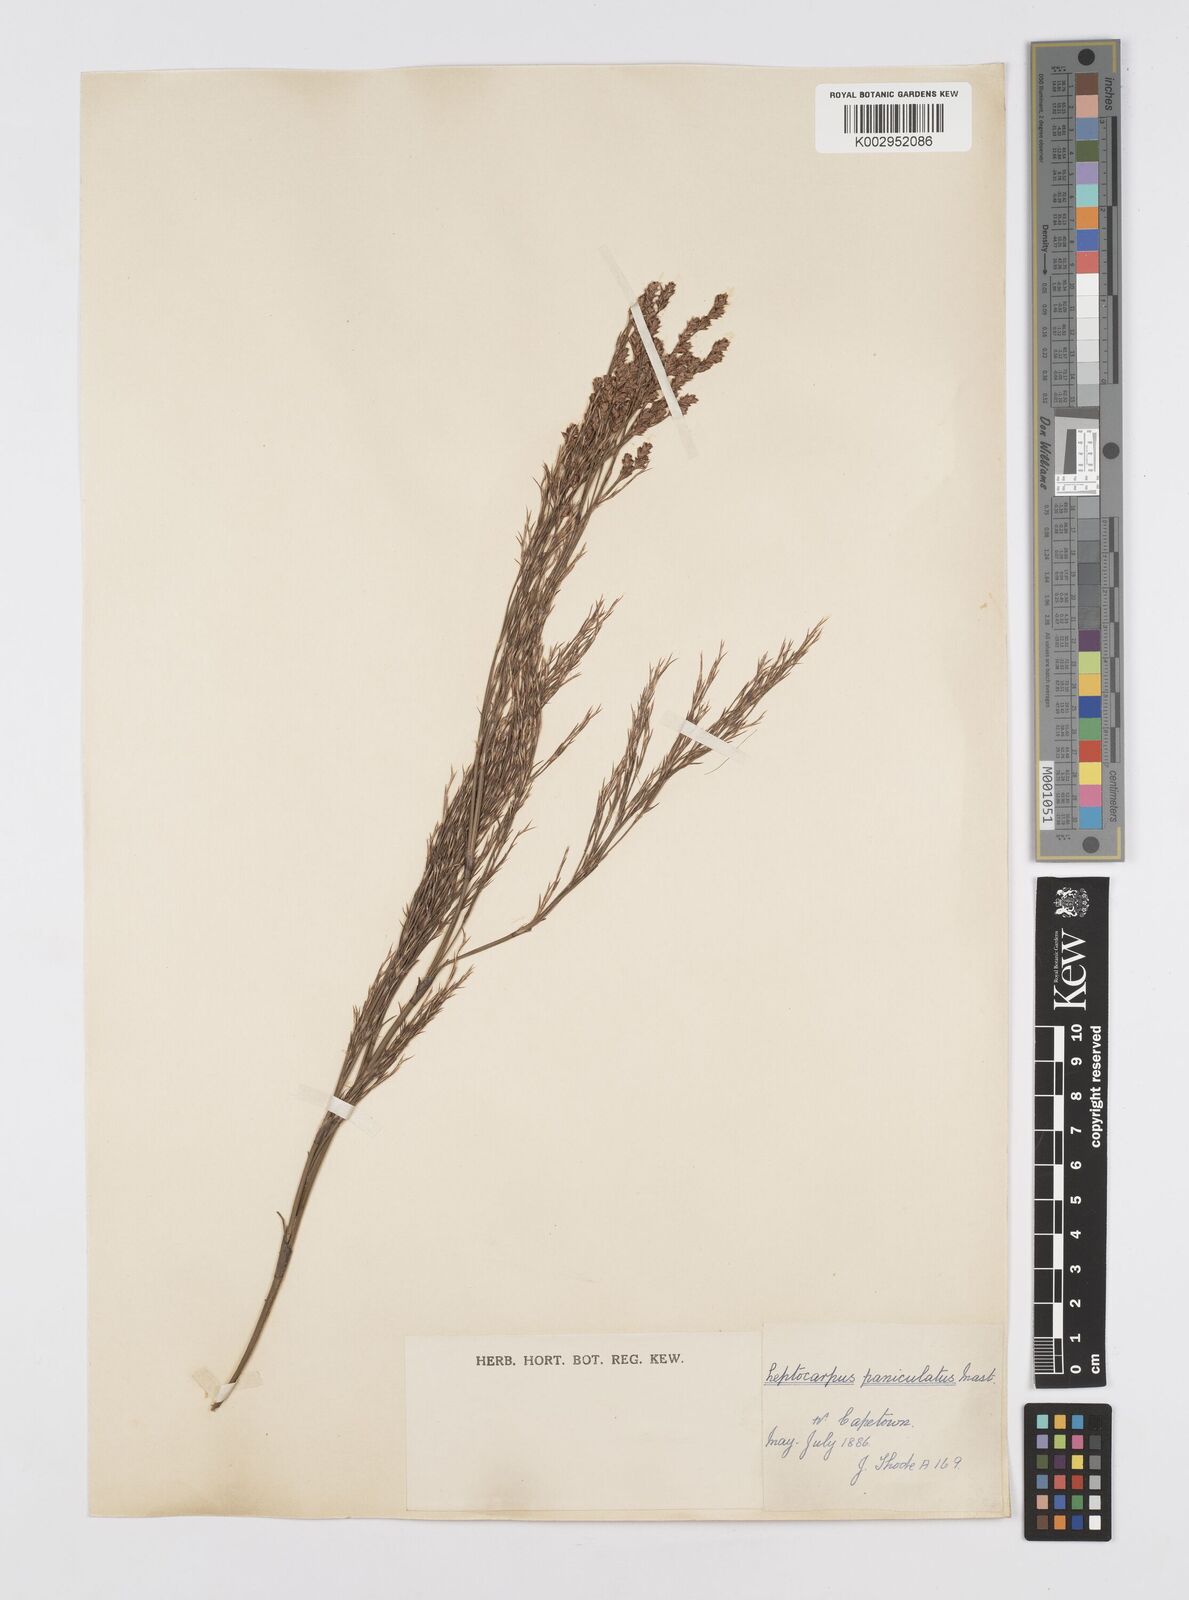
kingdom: Plantae
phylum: Tracheophyta
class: Liliopsida
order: Poales
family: Restionaceae
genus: Restio
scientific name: Restio paniculatus
